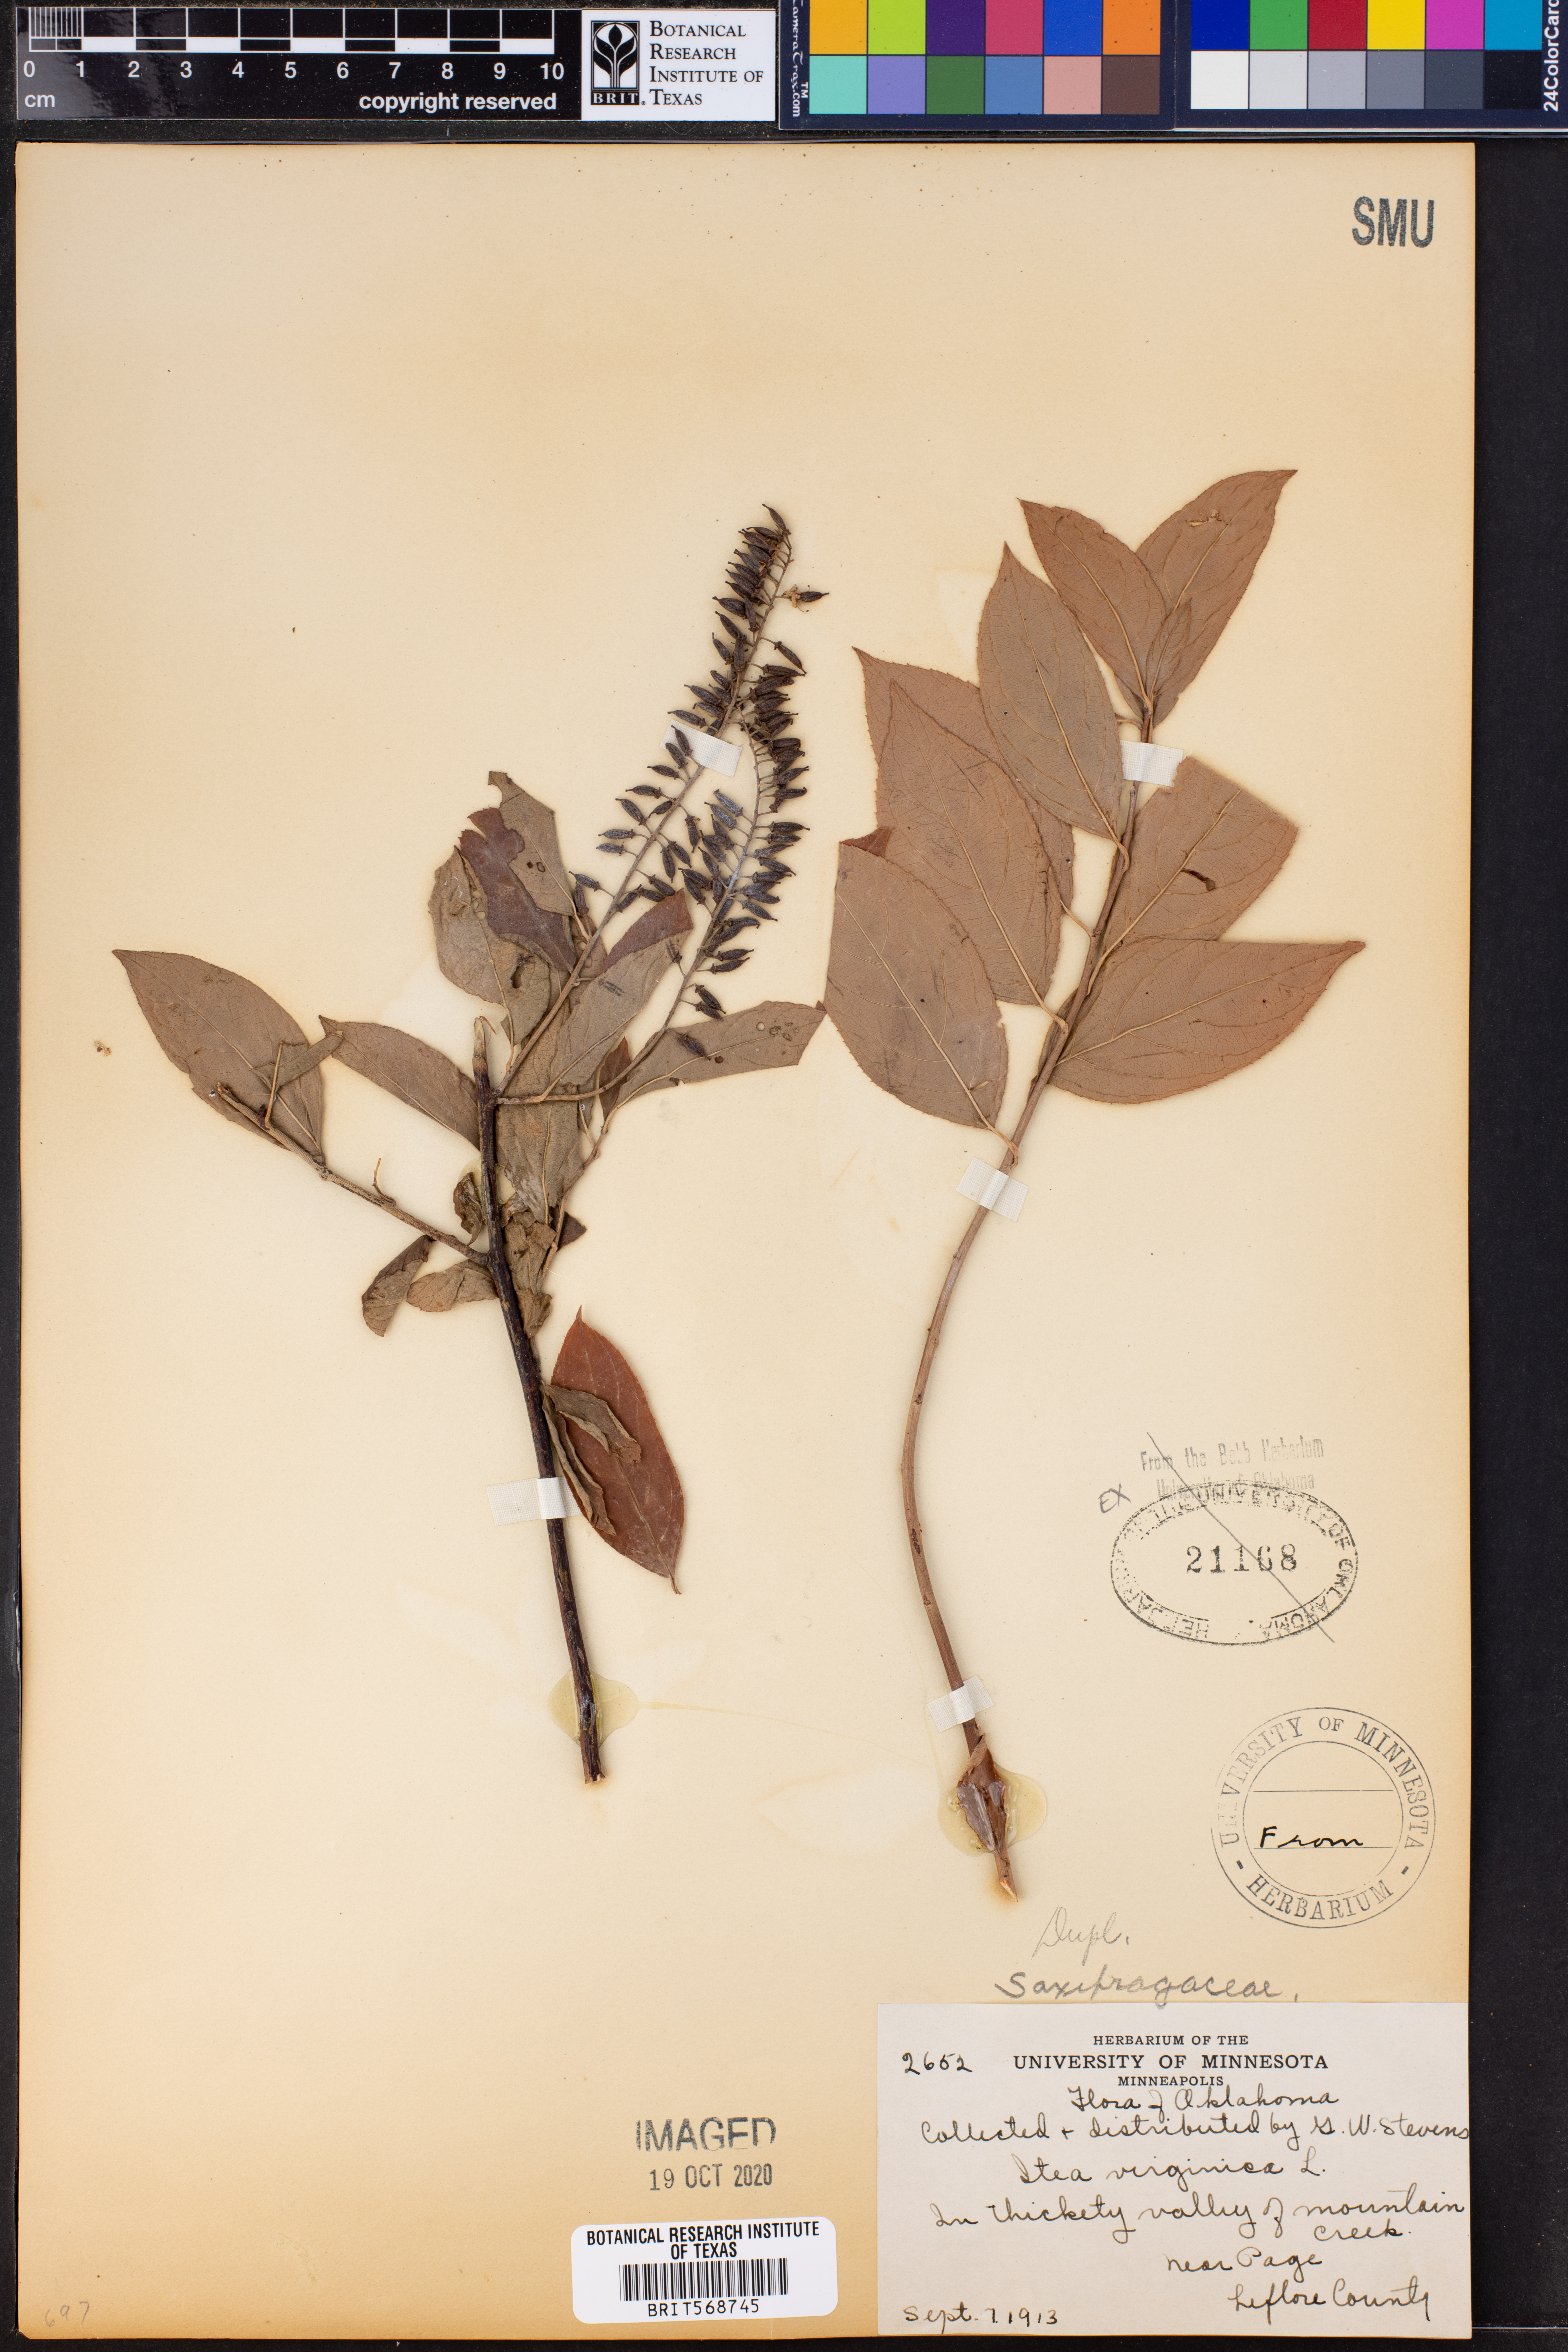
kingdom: Plantae
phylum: Tracheophyta
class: Magnoliopsida
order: Saxifragales
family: Iteaceae
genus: Itea
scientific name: Itea virginica
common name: Sweetspire
